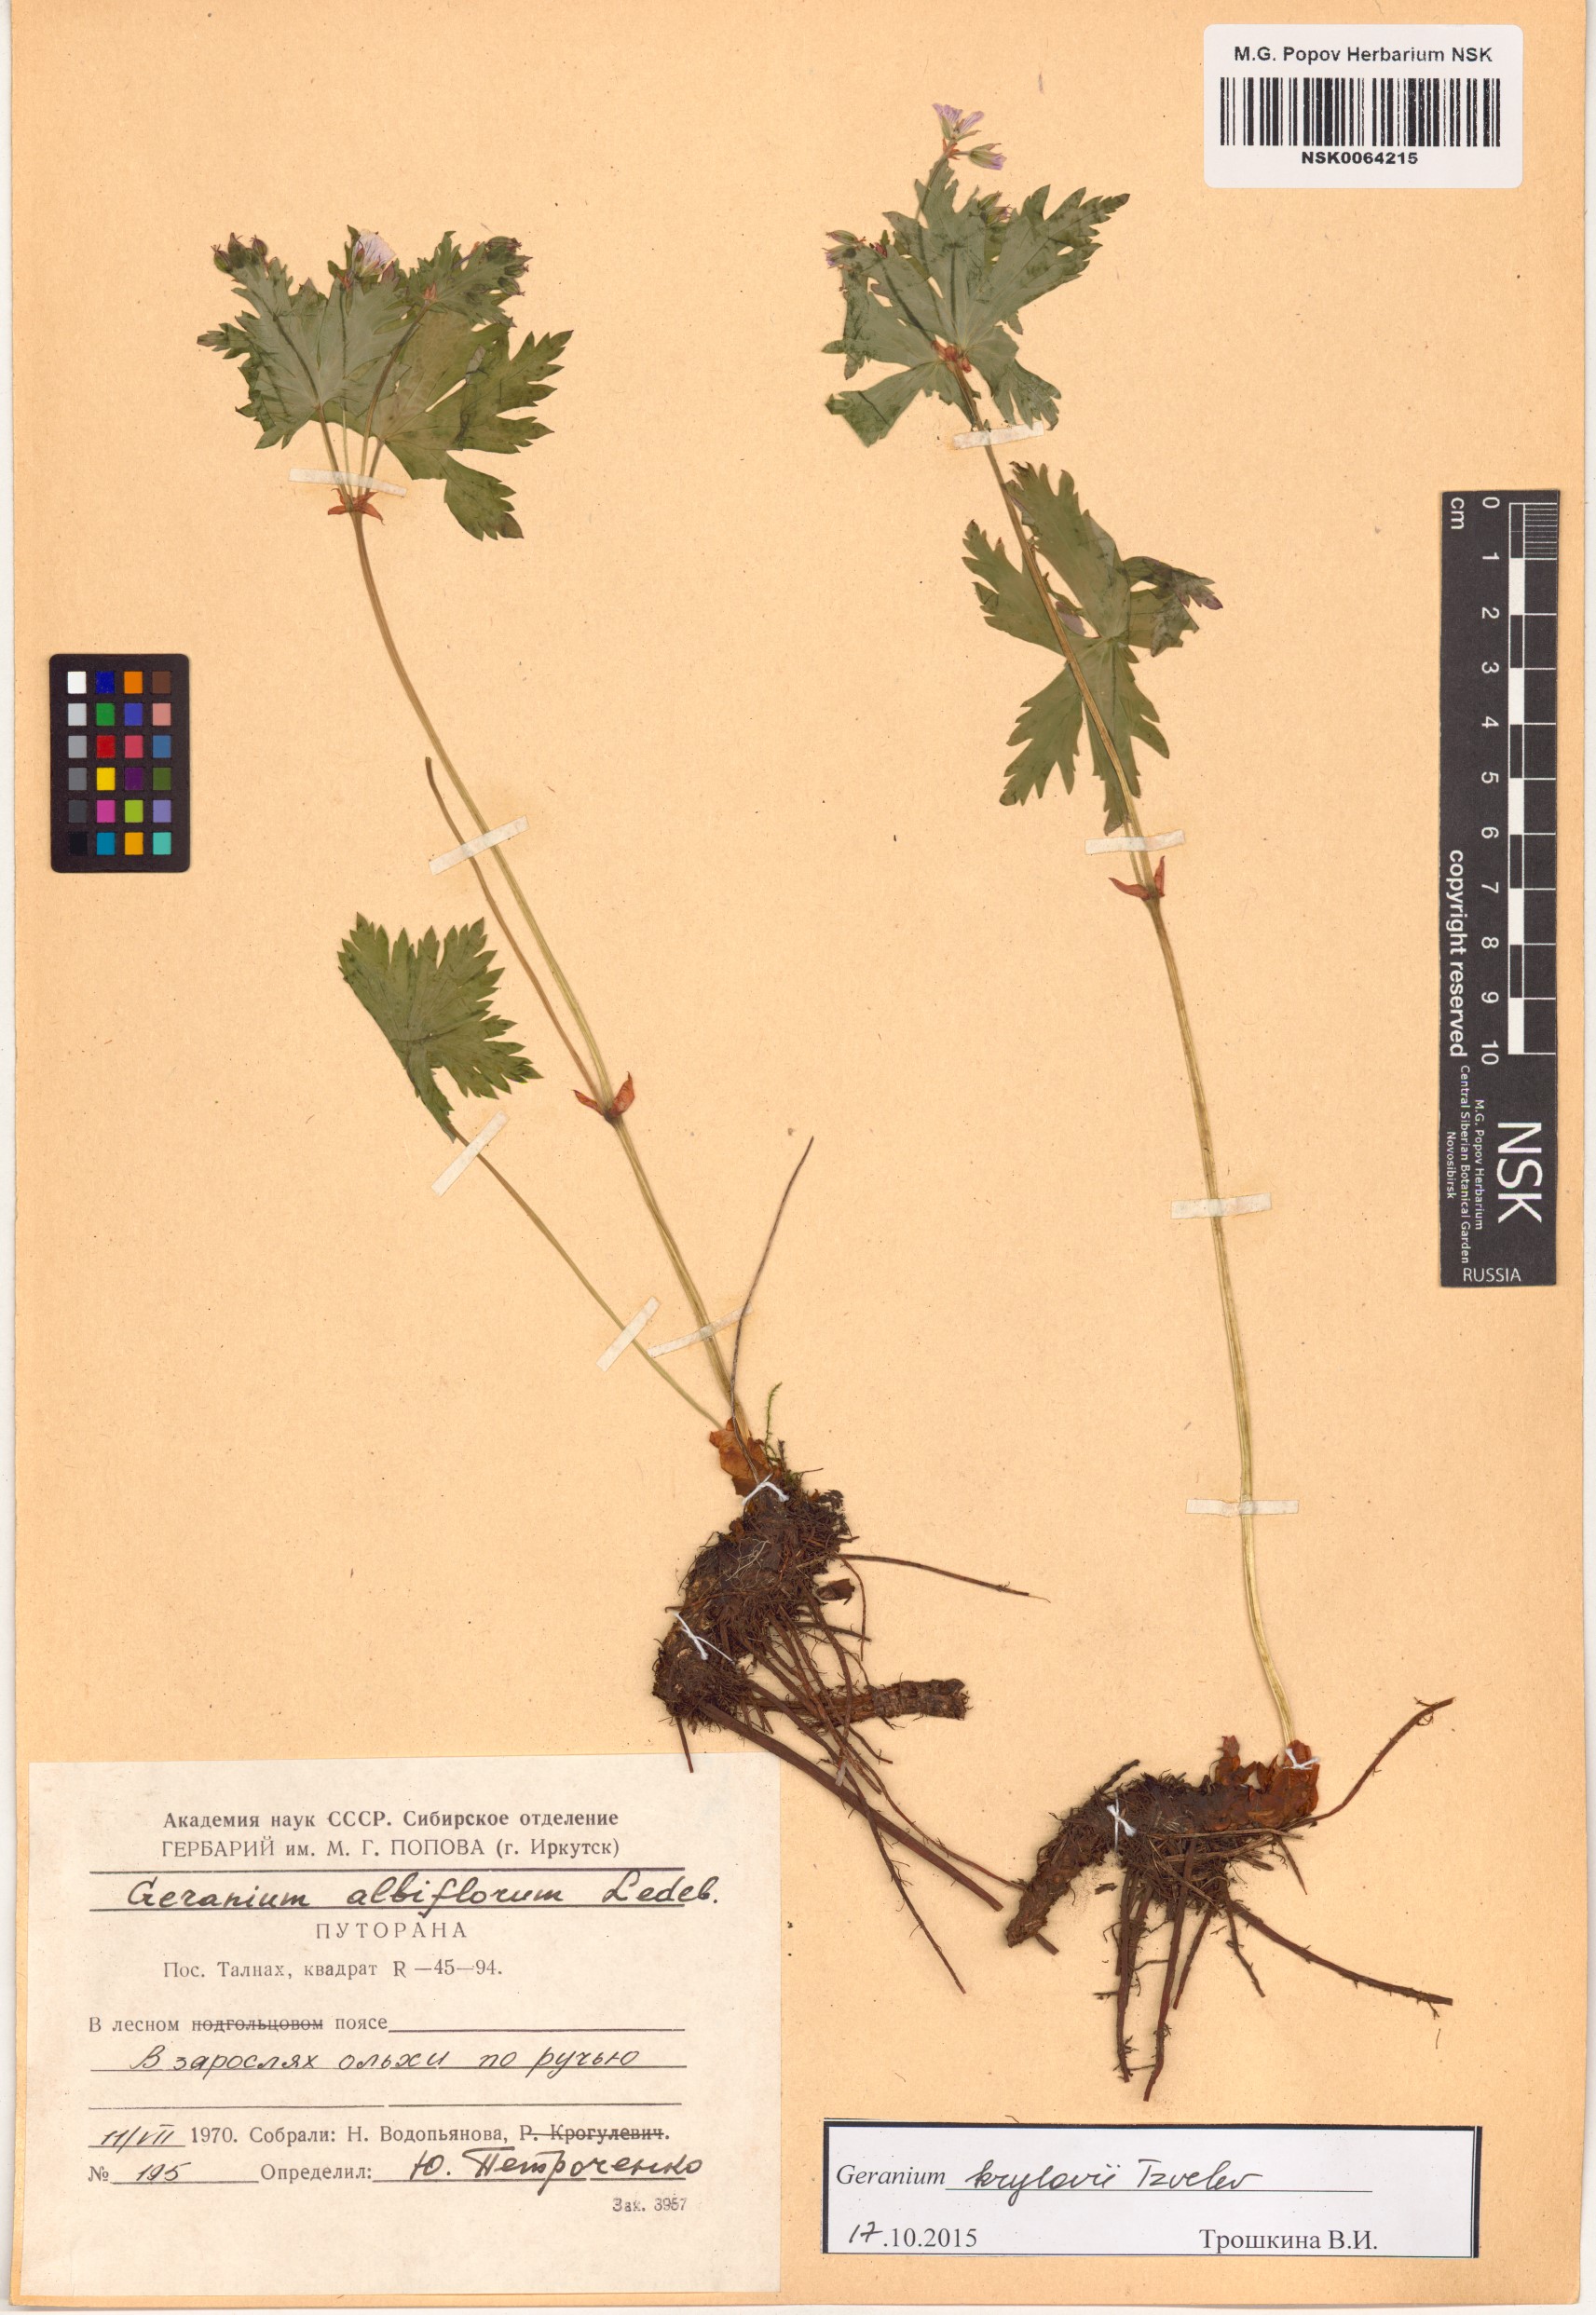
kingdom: Plantae
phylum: Tracheophyta
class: Magnoliopsida
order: Geraniales
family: Geraniaceae
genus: Geranium
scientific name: Geranium sylvaticum
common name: Wood crane's-bill
